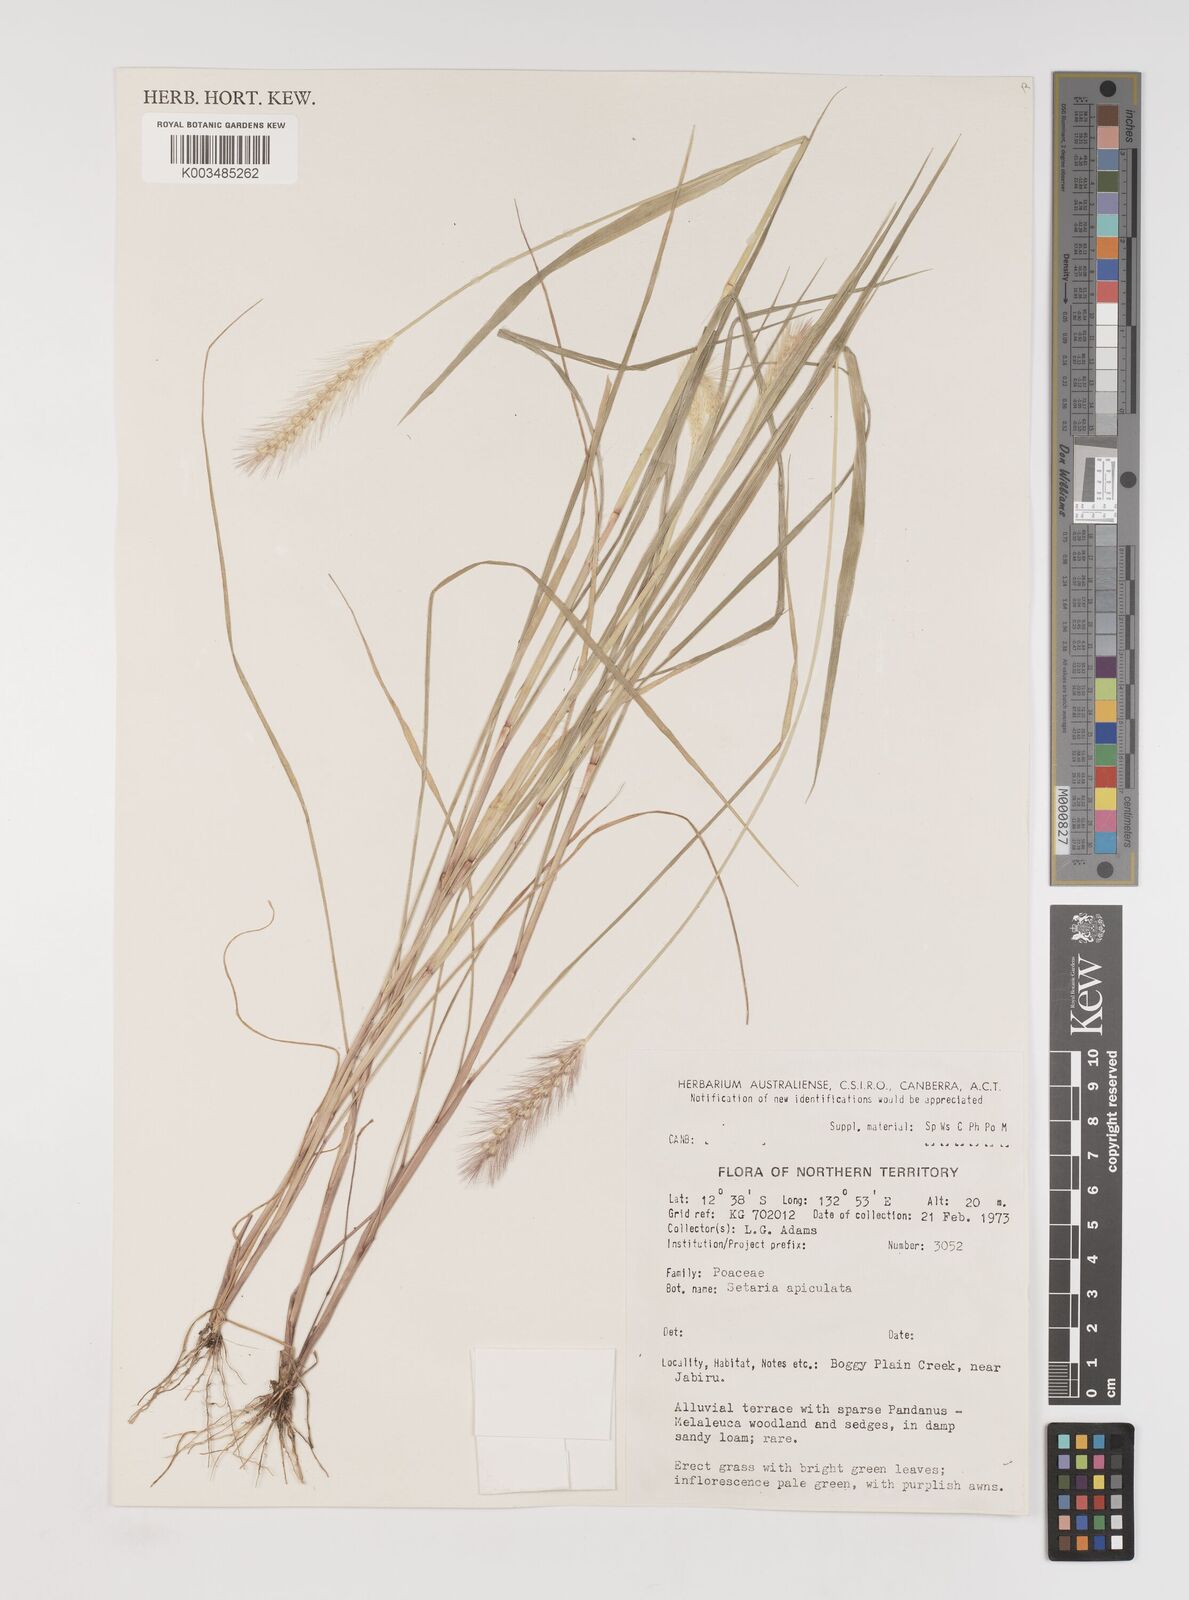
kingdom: Plantae
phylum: Tracheophyta
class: Liliopsida
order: Poales
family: Poaceae
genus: Setaria
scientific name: Setaria surgens
